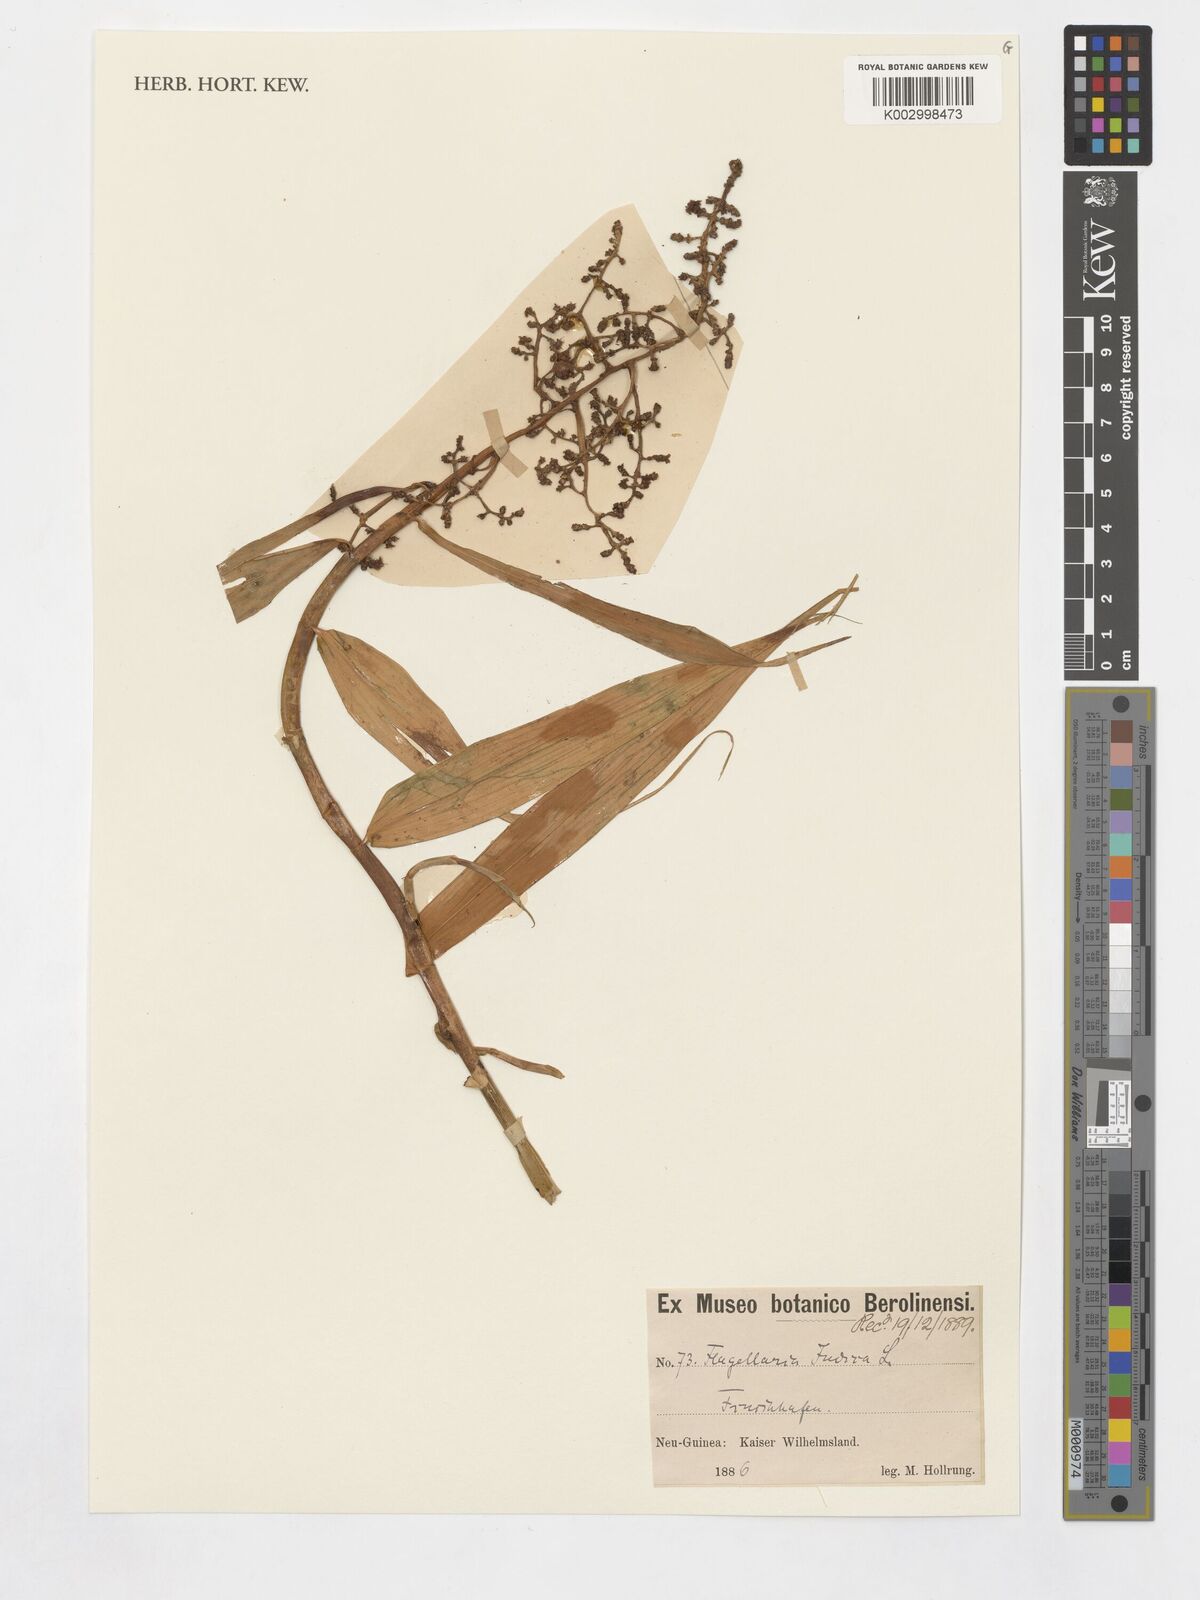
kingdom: Plantae
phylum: Tracheophyta
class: Liliopsida
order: Poales
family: Flagellariaceae
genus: Flagellaria
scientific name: Flagellaria
